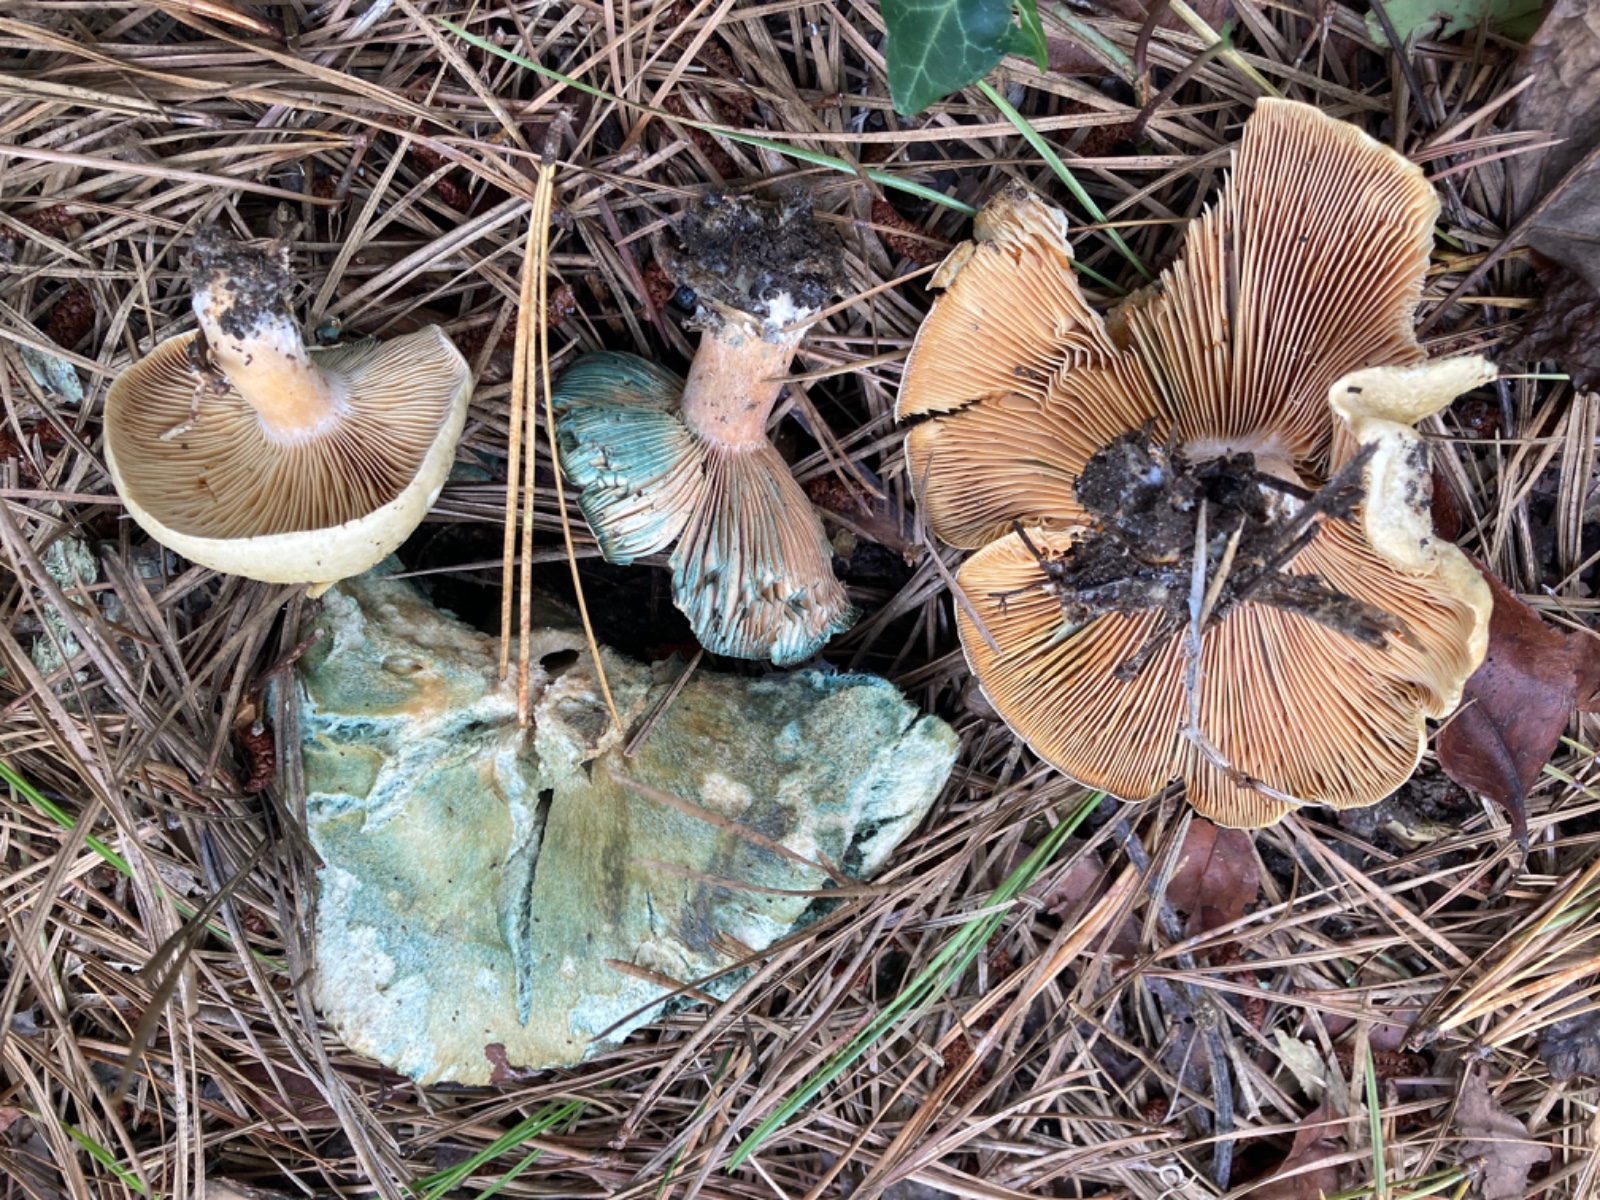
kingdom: Fungi
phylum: Basidiomycota
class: Agaricomycetes
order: Russulales
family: Russulaceae
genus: Russula
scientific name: Russula
